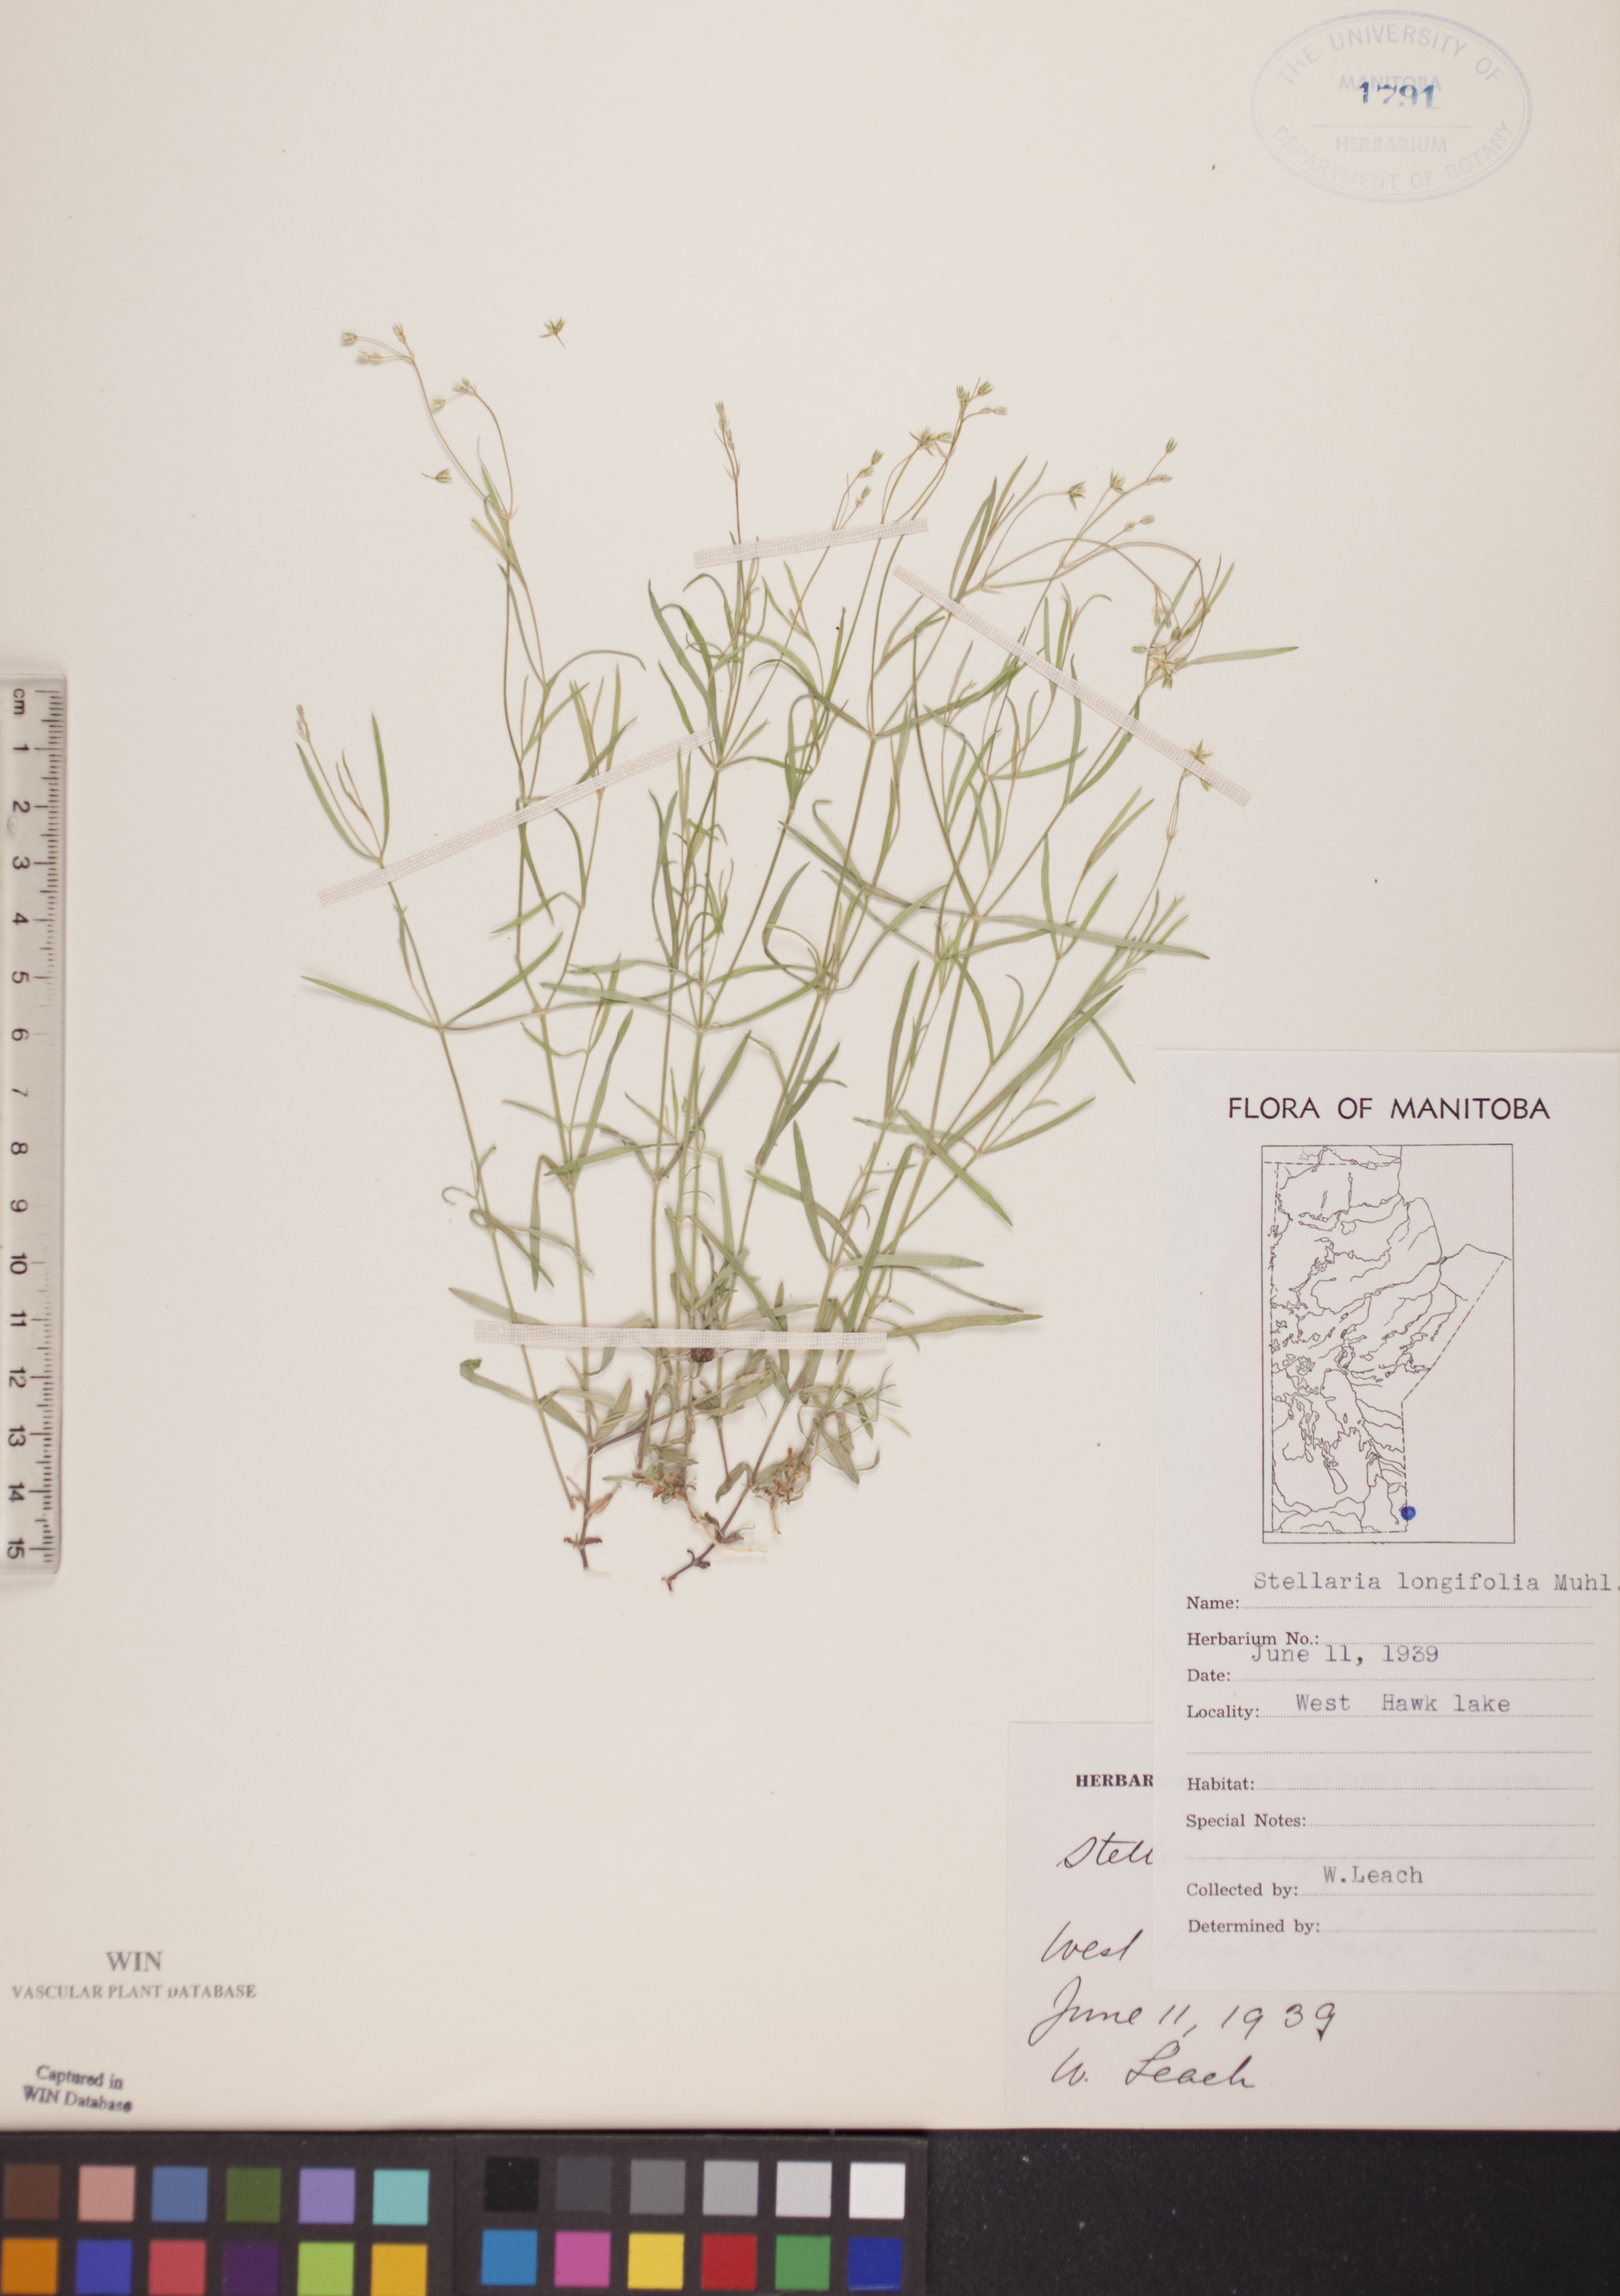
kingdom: Plantae
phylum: Tracheophyta
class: Magnoliopsida
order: Caryophyllales
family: Caryophyllaceae
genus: Stellaria
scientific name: Stellaria longifolia
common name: Long-leaved chickweed
